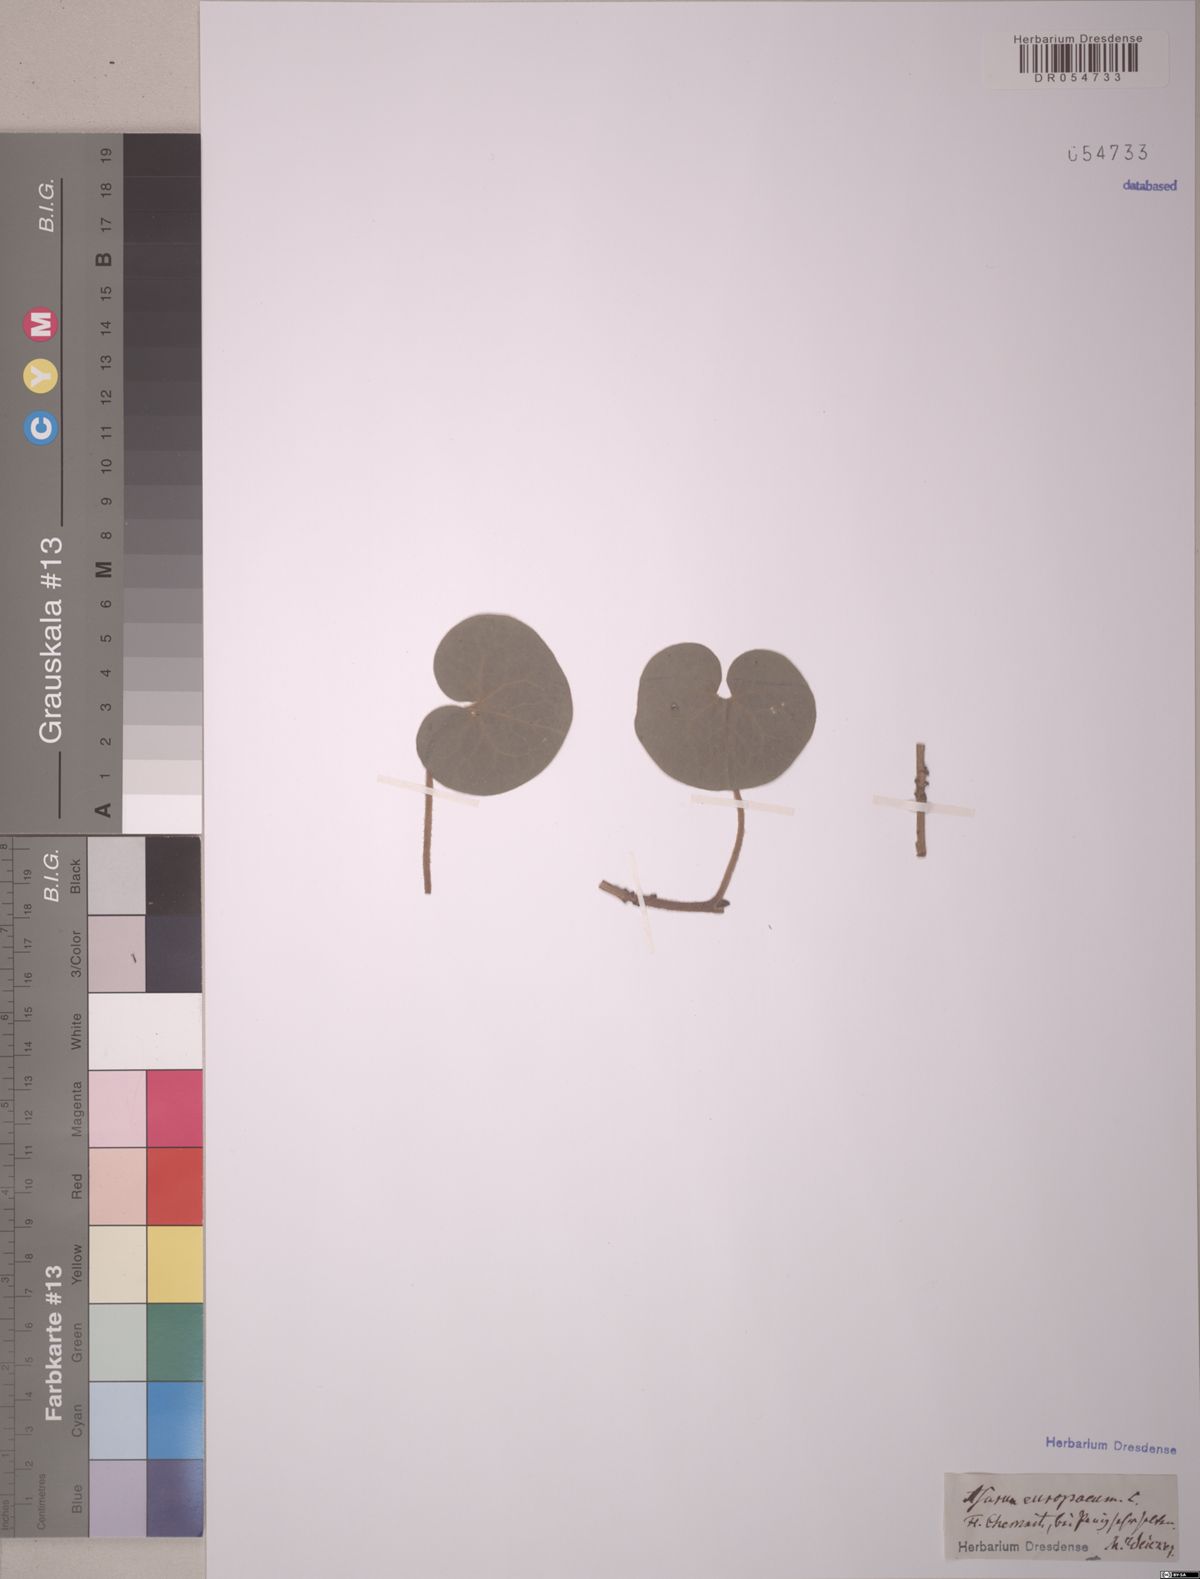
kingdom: Plantae
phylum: Tracheophyta
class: Magnoliopsida
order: Piperales
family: Aristolochiaceae
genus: Asarum
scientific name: Asarum europaeum
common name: Asarabacca
